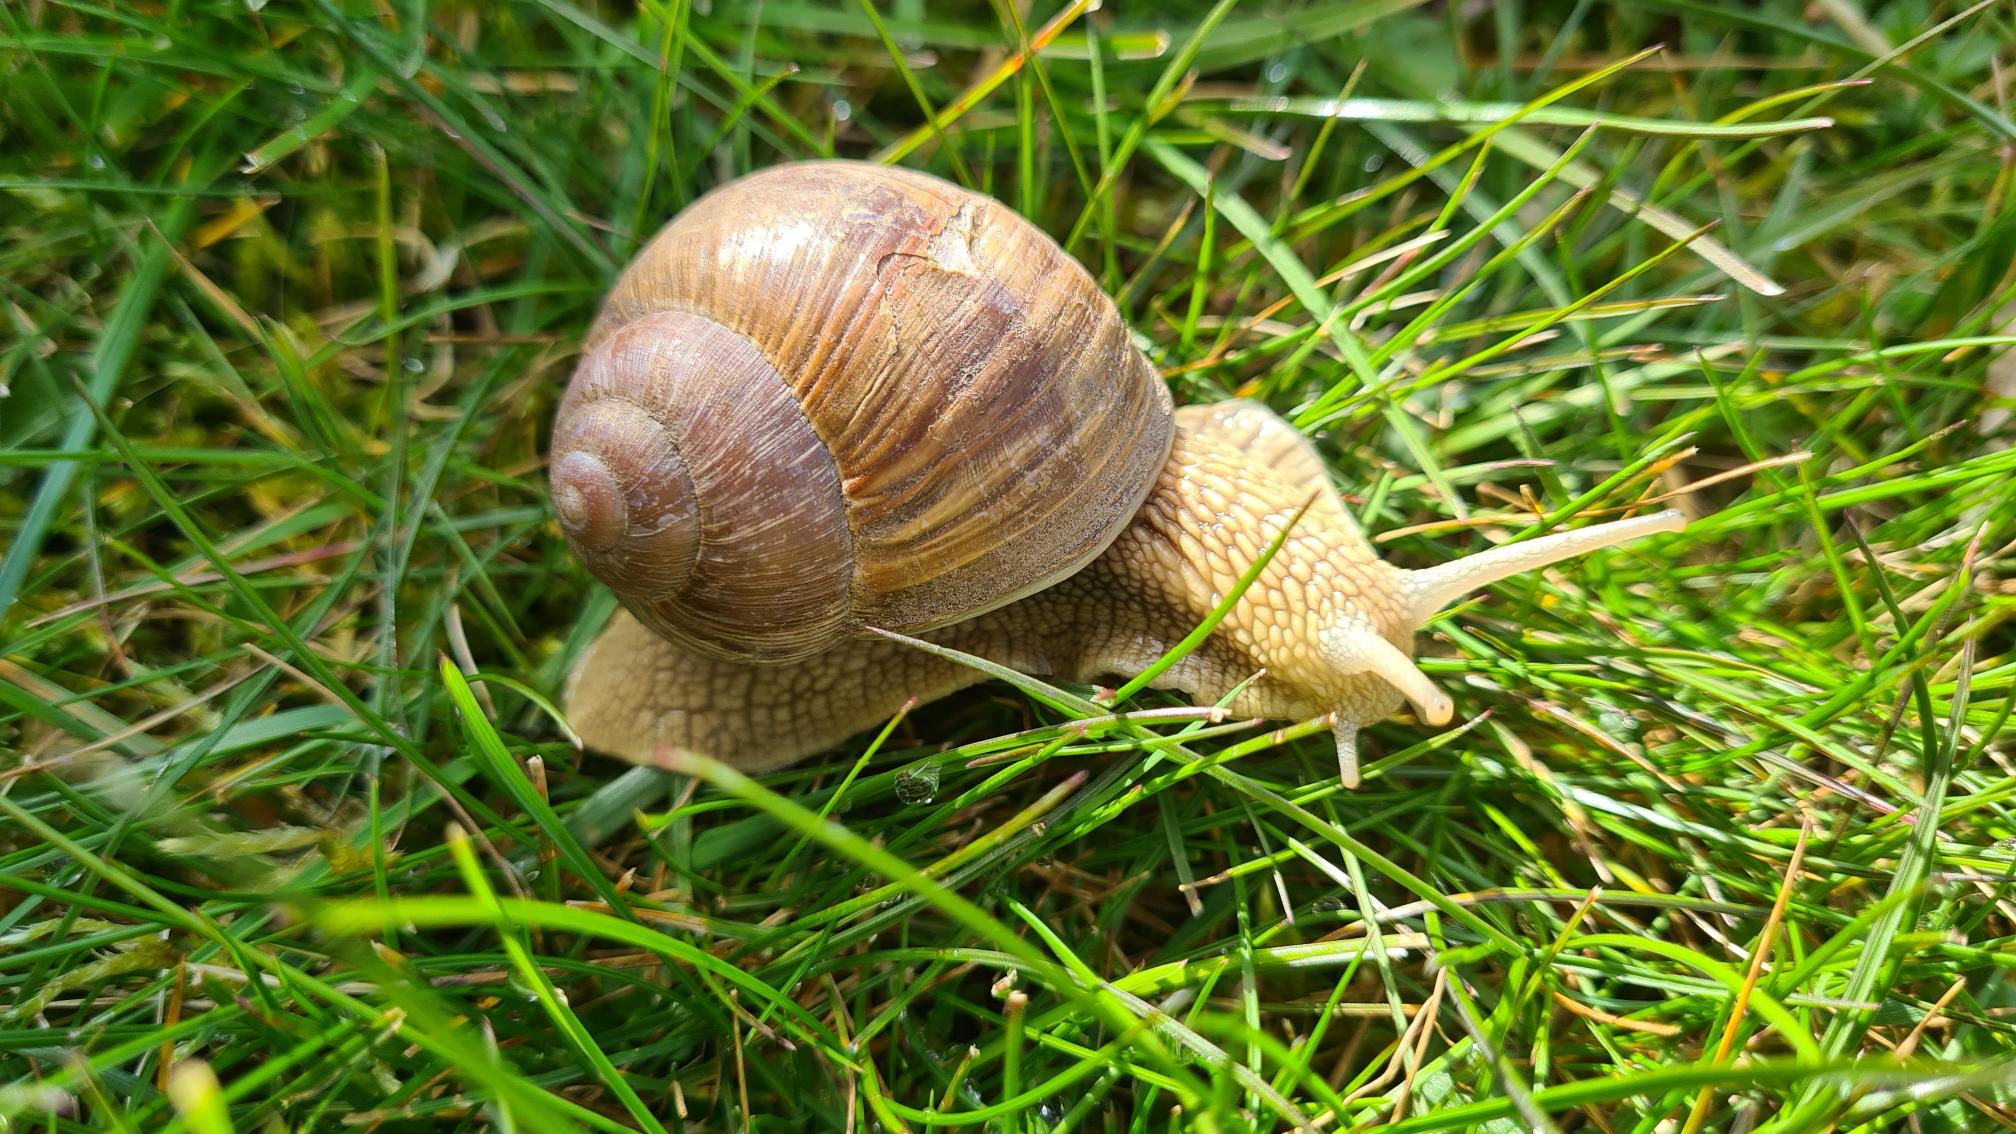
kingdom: Animalia
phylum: Mollusca
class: Gastropoda
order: Stylommatophora
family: Helicidae
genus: Helix
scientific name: Helix pomatia
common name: Vinbjergsnegl
